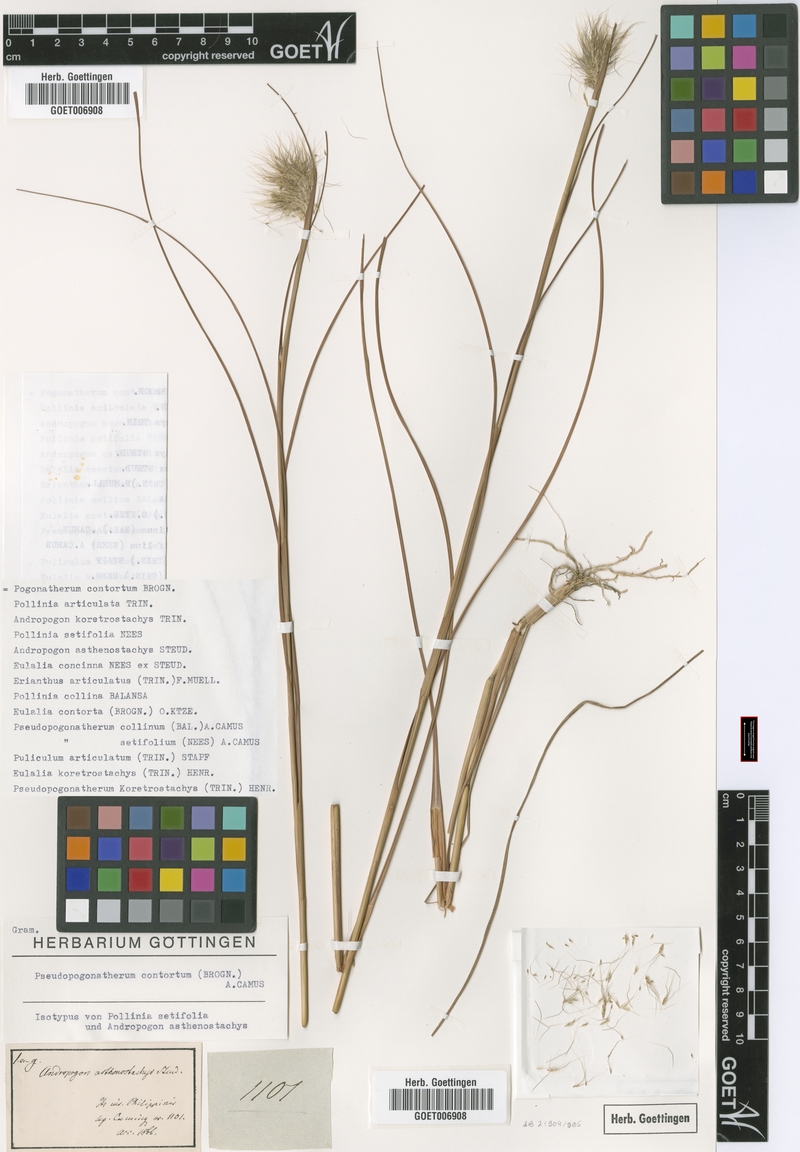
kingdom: Plantae
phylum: Tracheophyta
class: Liliopsida
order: Poales
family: Poaceae
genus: Pseudopogonatherum
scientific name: Pseudopogonatherum contortum
